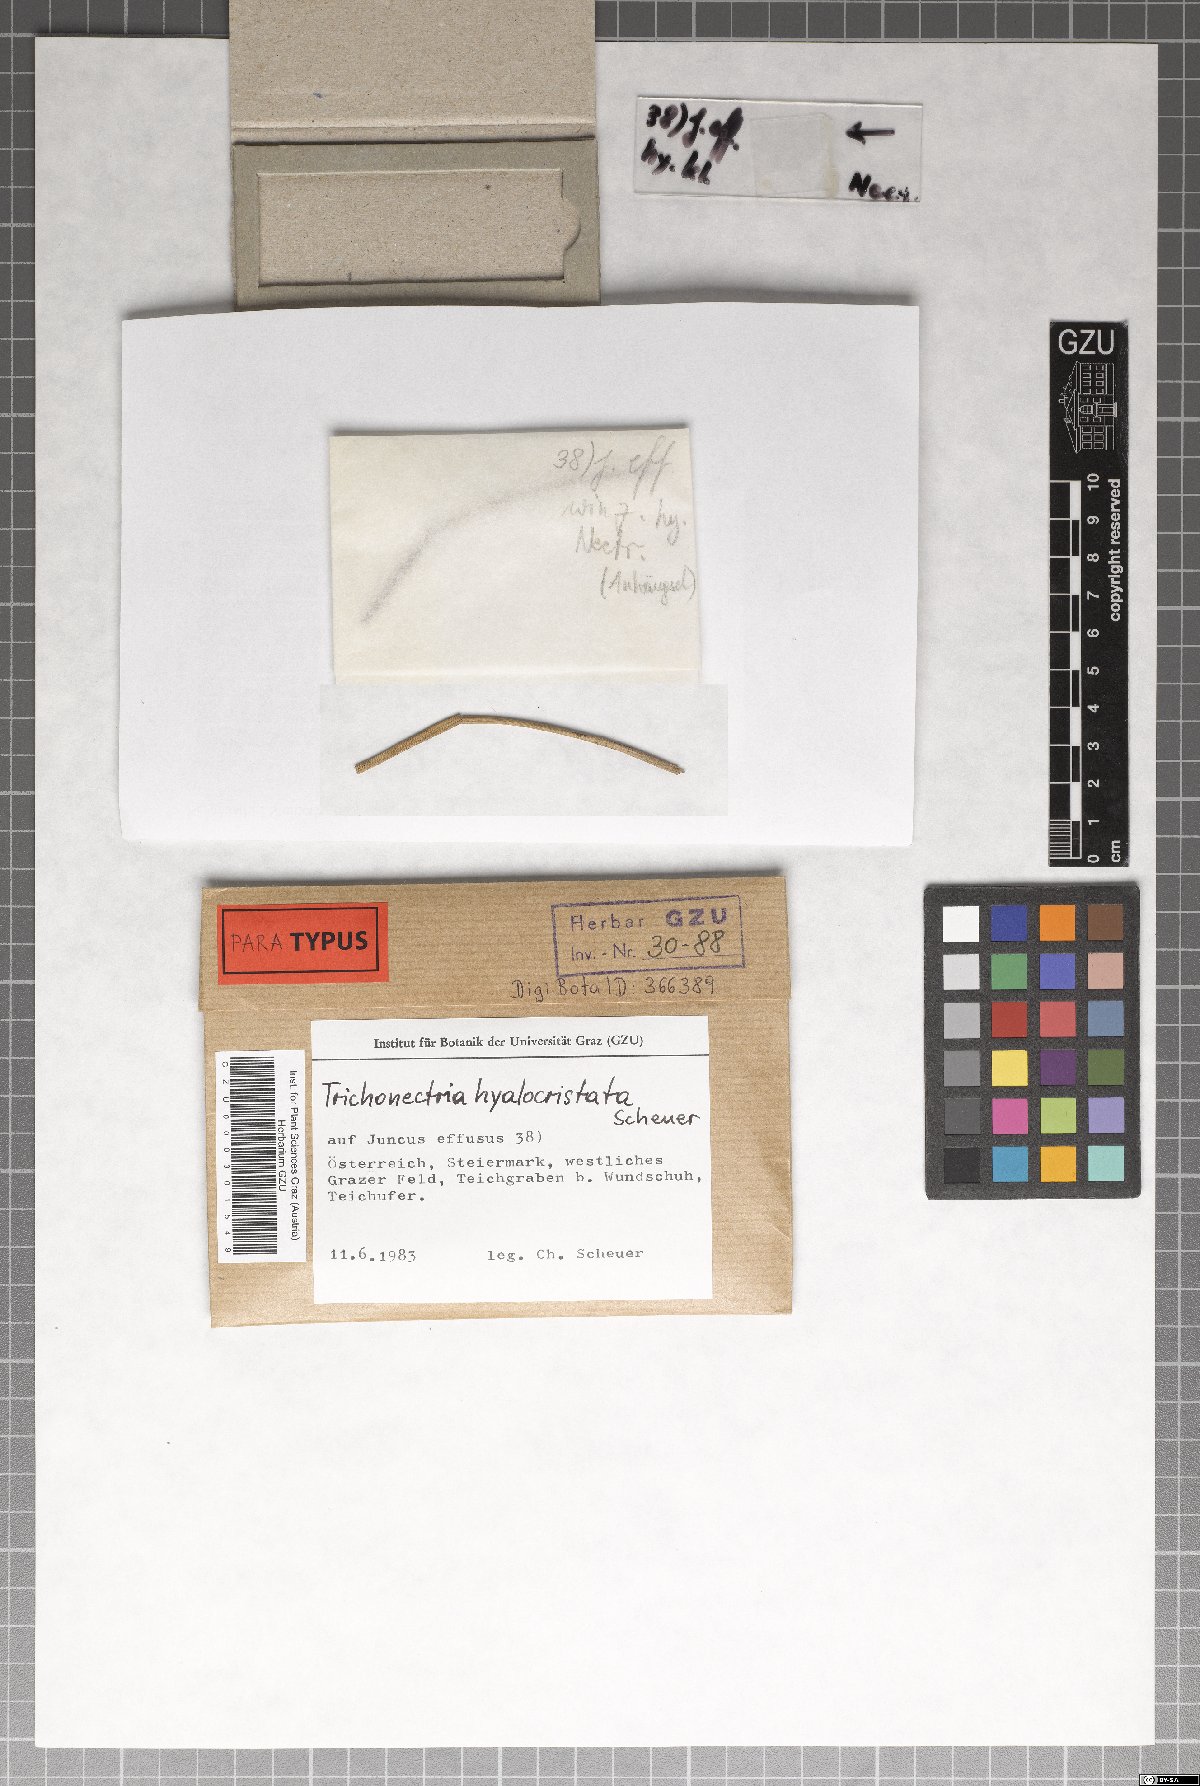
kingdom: Fungi
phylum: Ascomycota
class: Sordariomycetes
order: Hypocreales
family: Bionectriaceae
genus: Trichonectria
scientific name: Trichonectria hyalocristata
